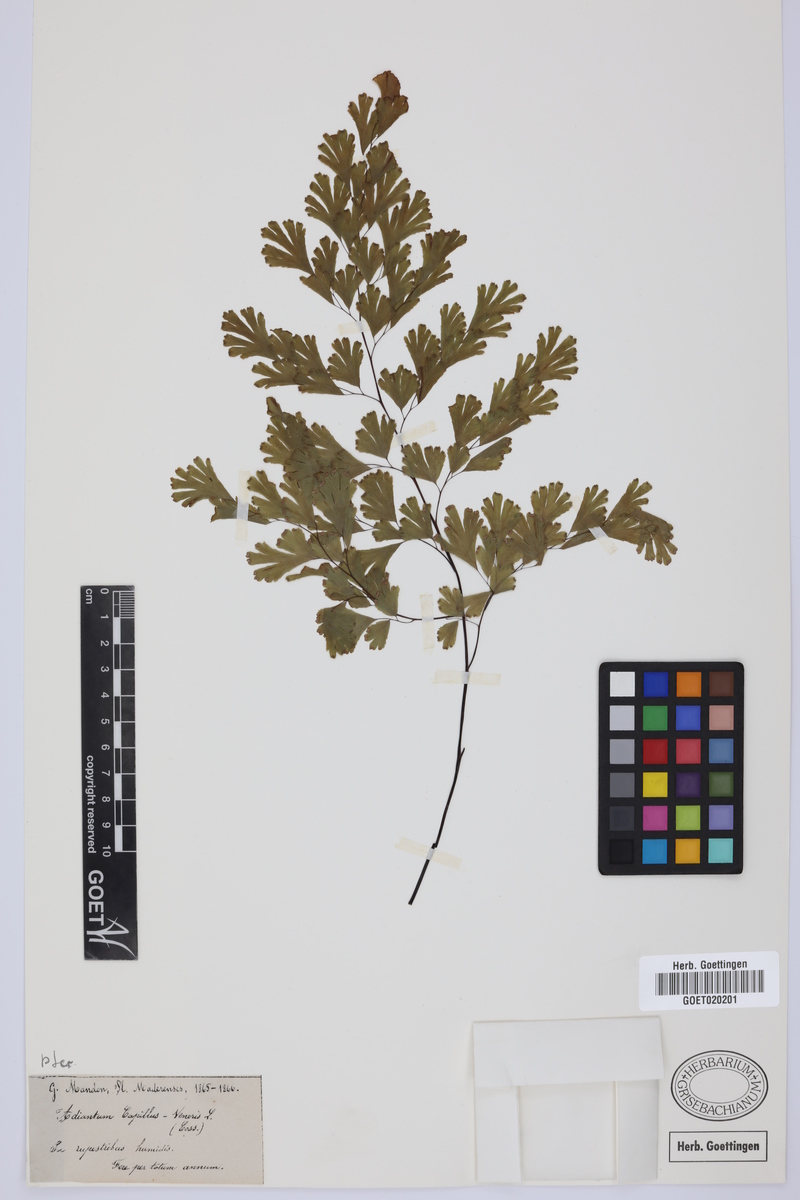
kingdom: Plantae
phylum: Tracheophyta
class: Polypodiopsida
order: Polypodiales
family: Pteridaceae
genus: Adiantum
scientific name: Adiantum capillus-veneris
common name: Maidenhair fern
